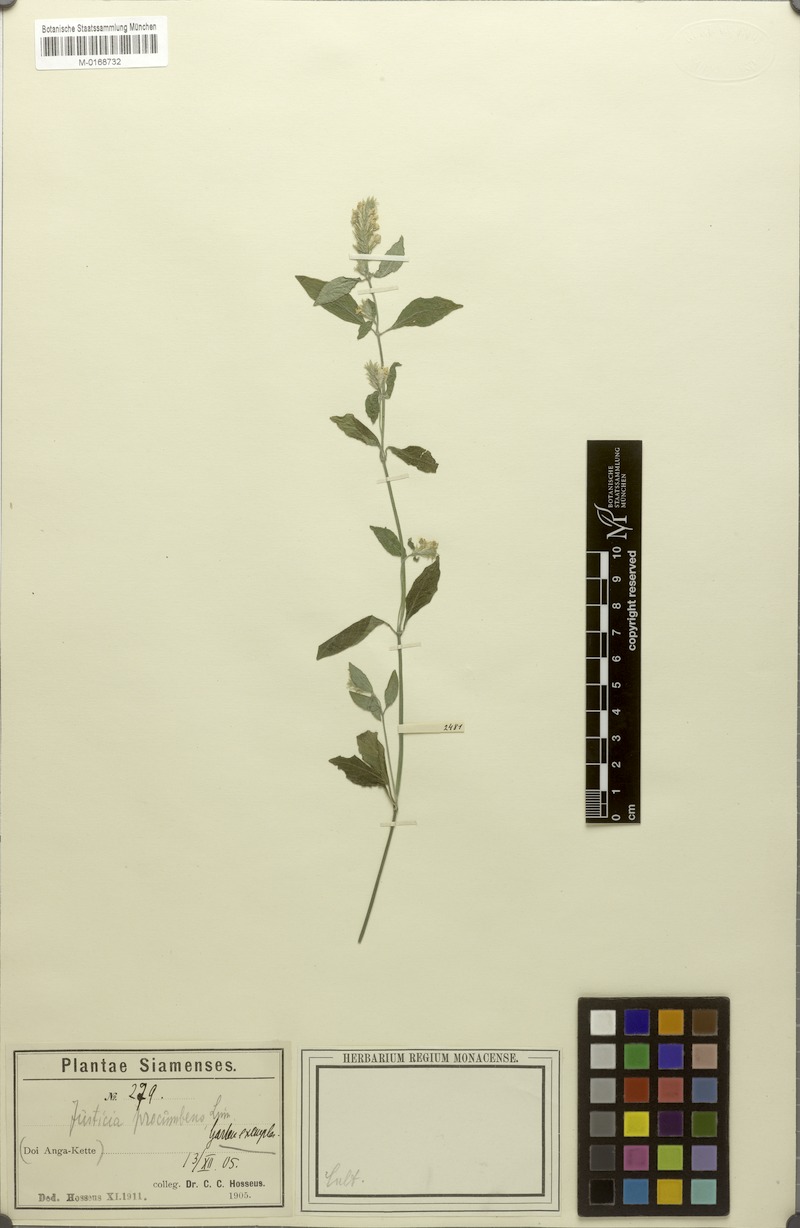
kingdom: Plantae
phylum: Tracheophyta
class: Magnoliopsida
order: Lamiales
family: Acanthaceae
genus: Rostellularia
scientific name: Rostellularia procumbens
